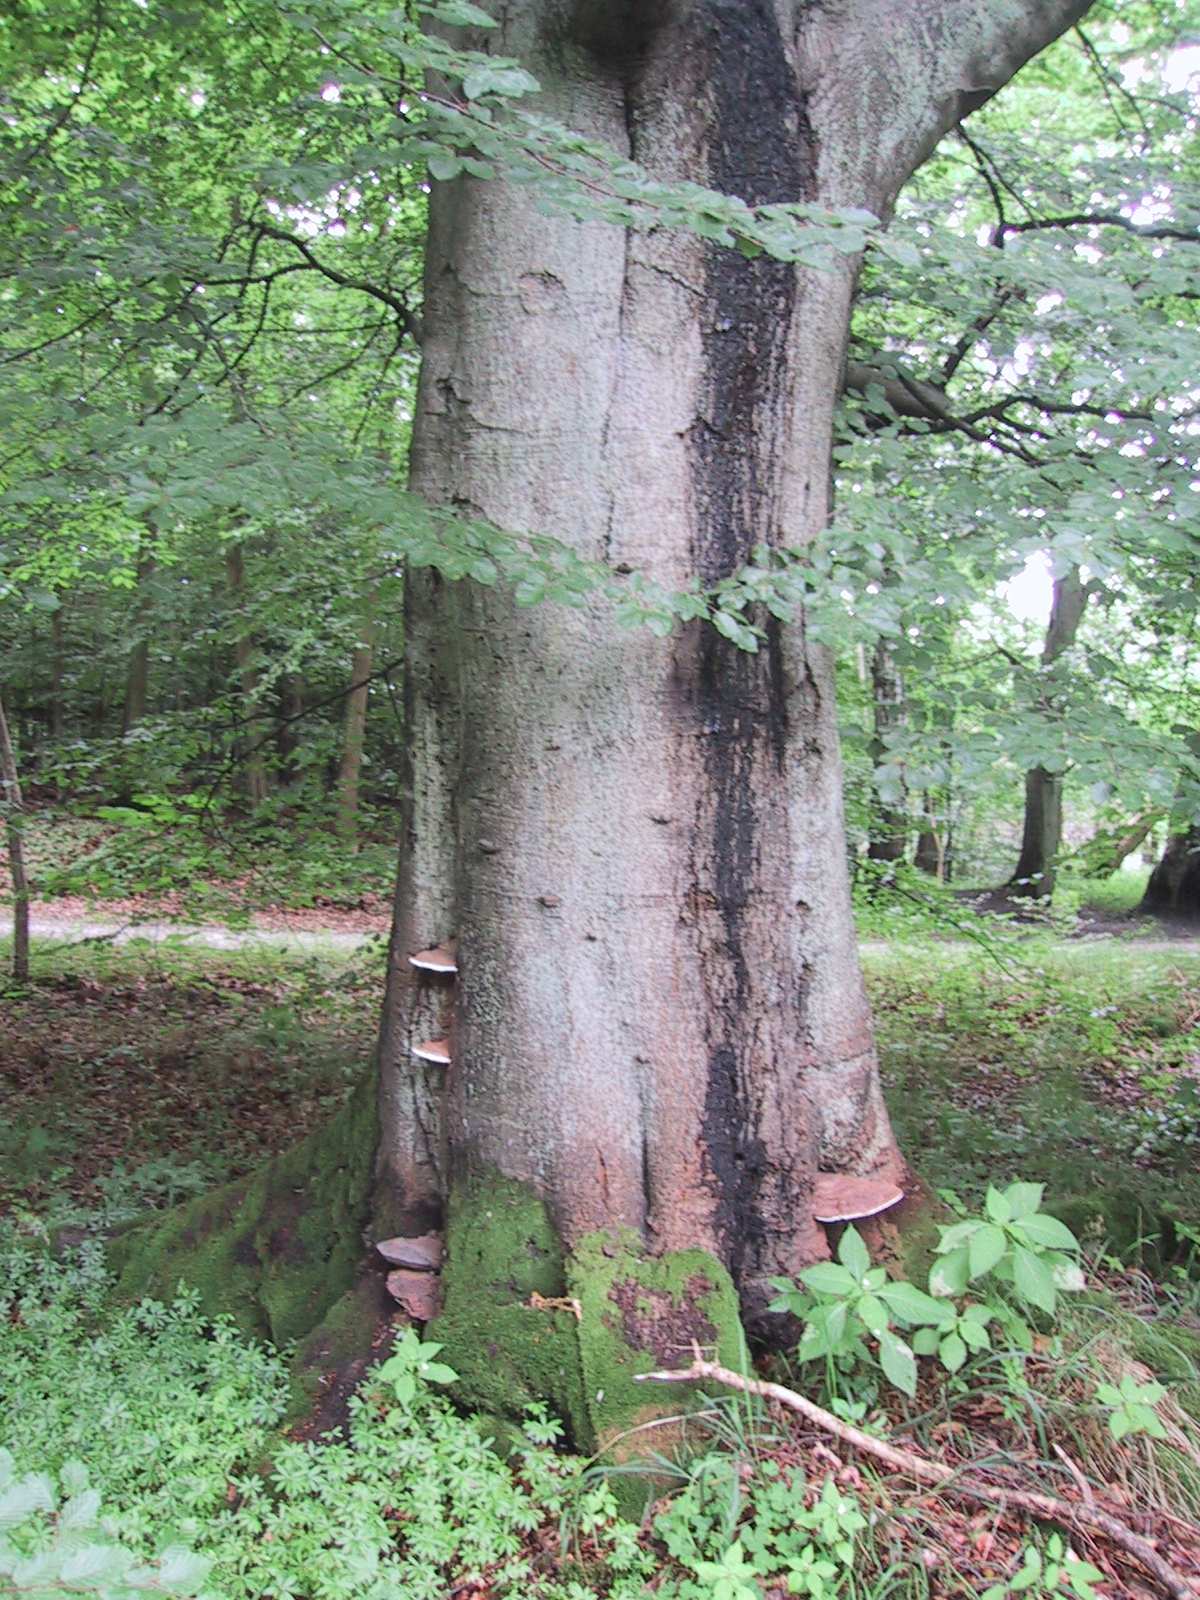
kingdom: Fungi
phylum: Basidiomycota
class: Agaricomycetes
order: Polyporales
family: Polyporaceae
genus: Ganoderma
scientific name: Ganoderma pfeifferi
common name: kobberrød lakporesvamp
